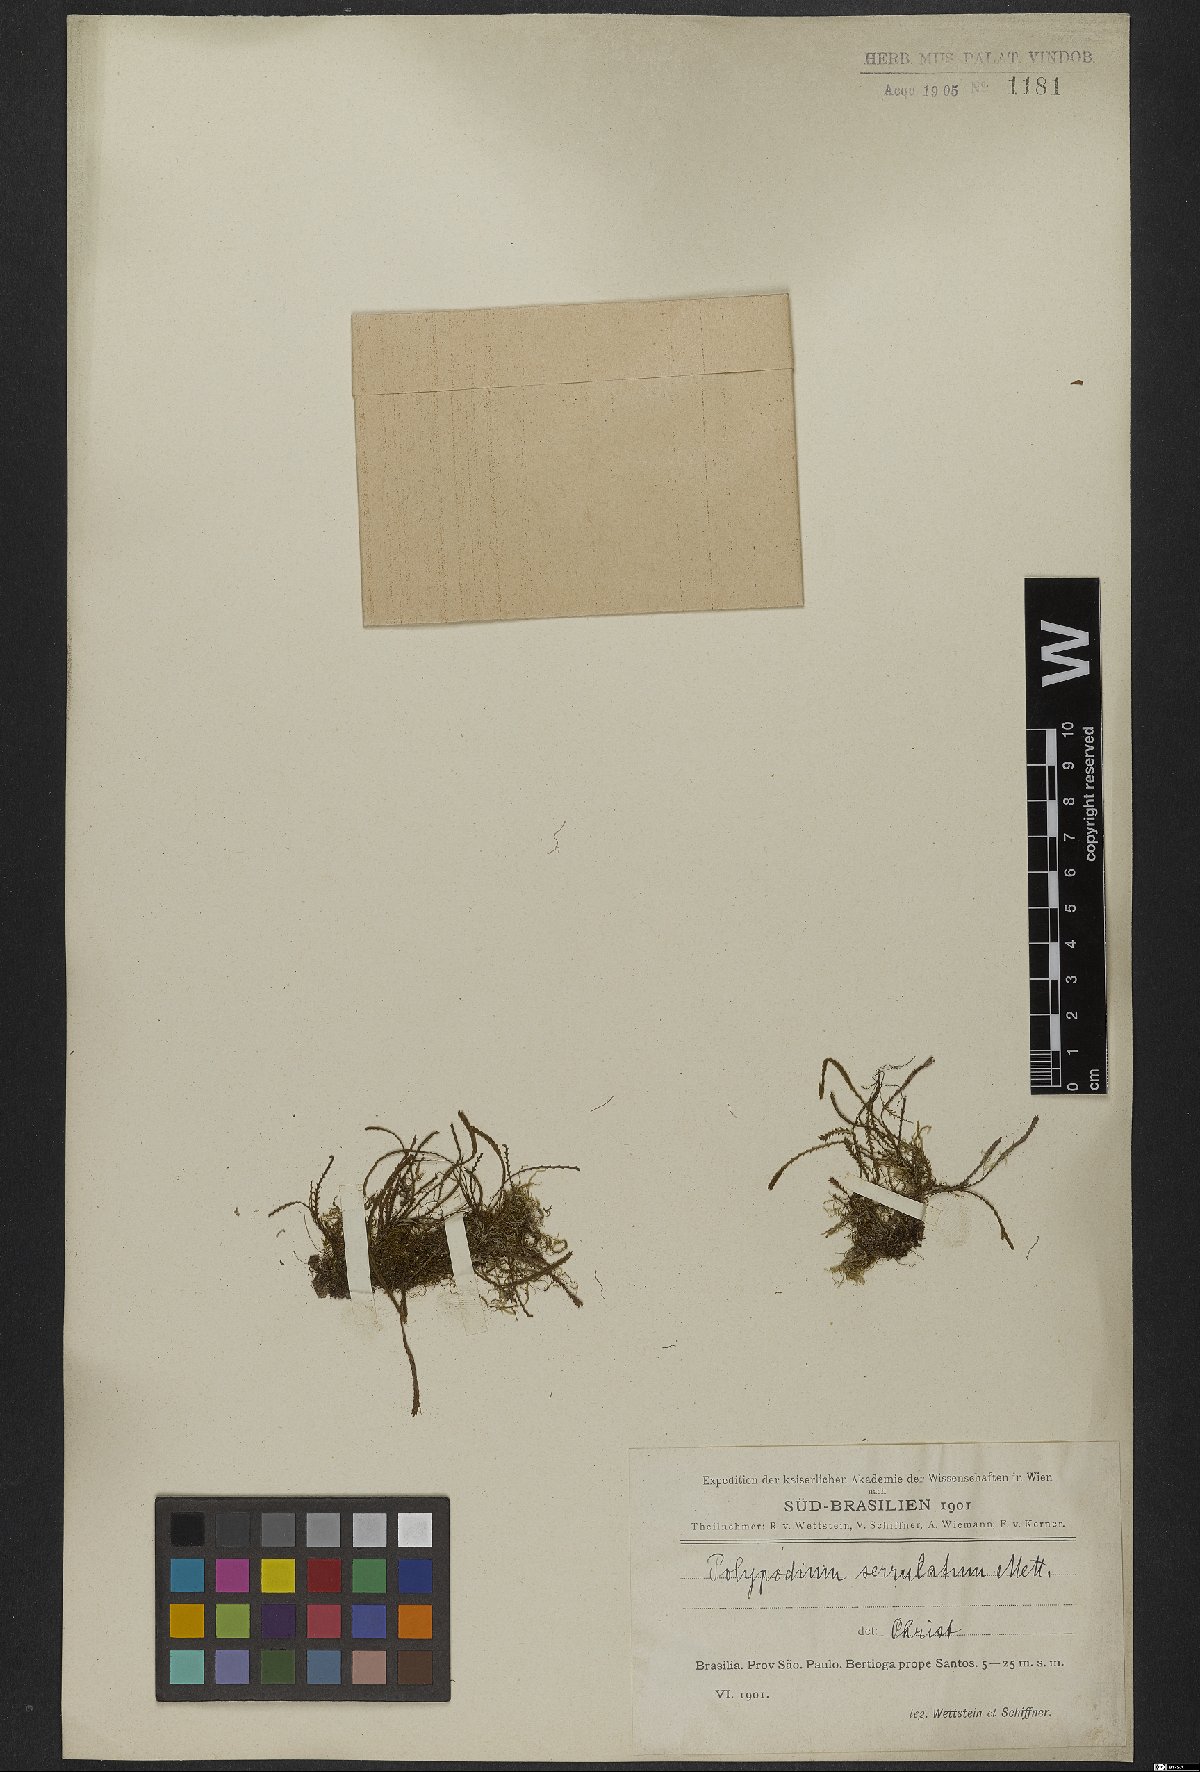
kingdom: Plantae
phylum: Tracheophyta
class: Polypodiopsida
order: Polypodiales
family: Polypodiaceae
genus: Cochlidium
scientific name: Cochlidium serrulatum
